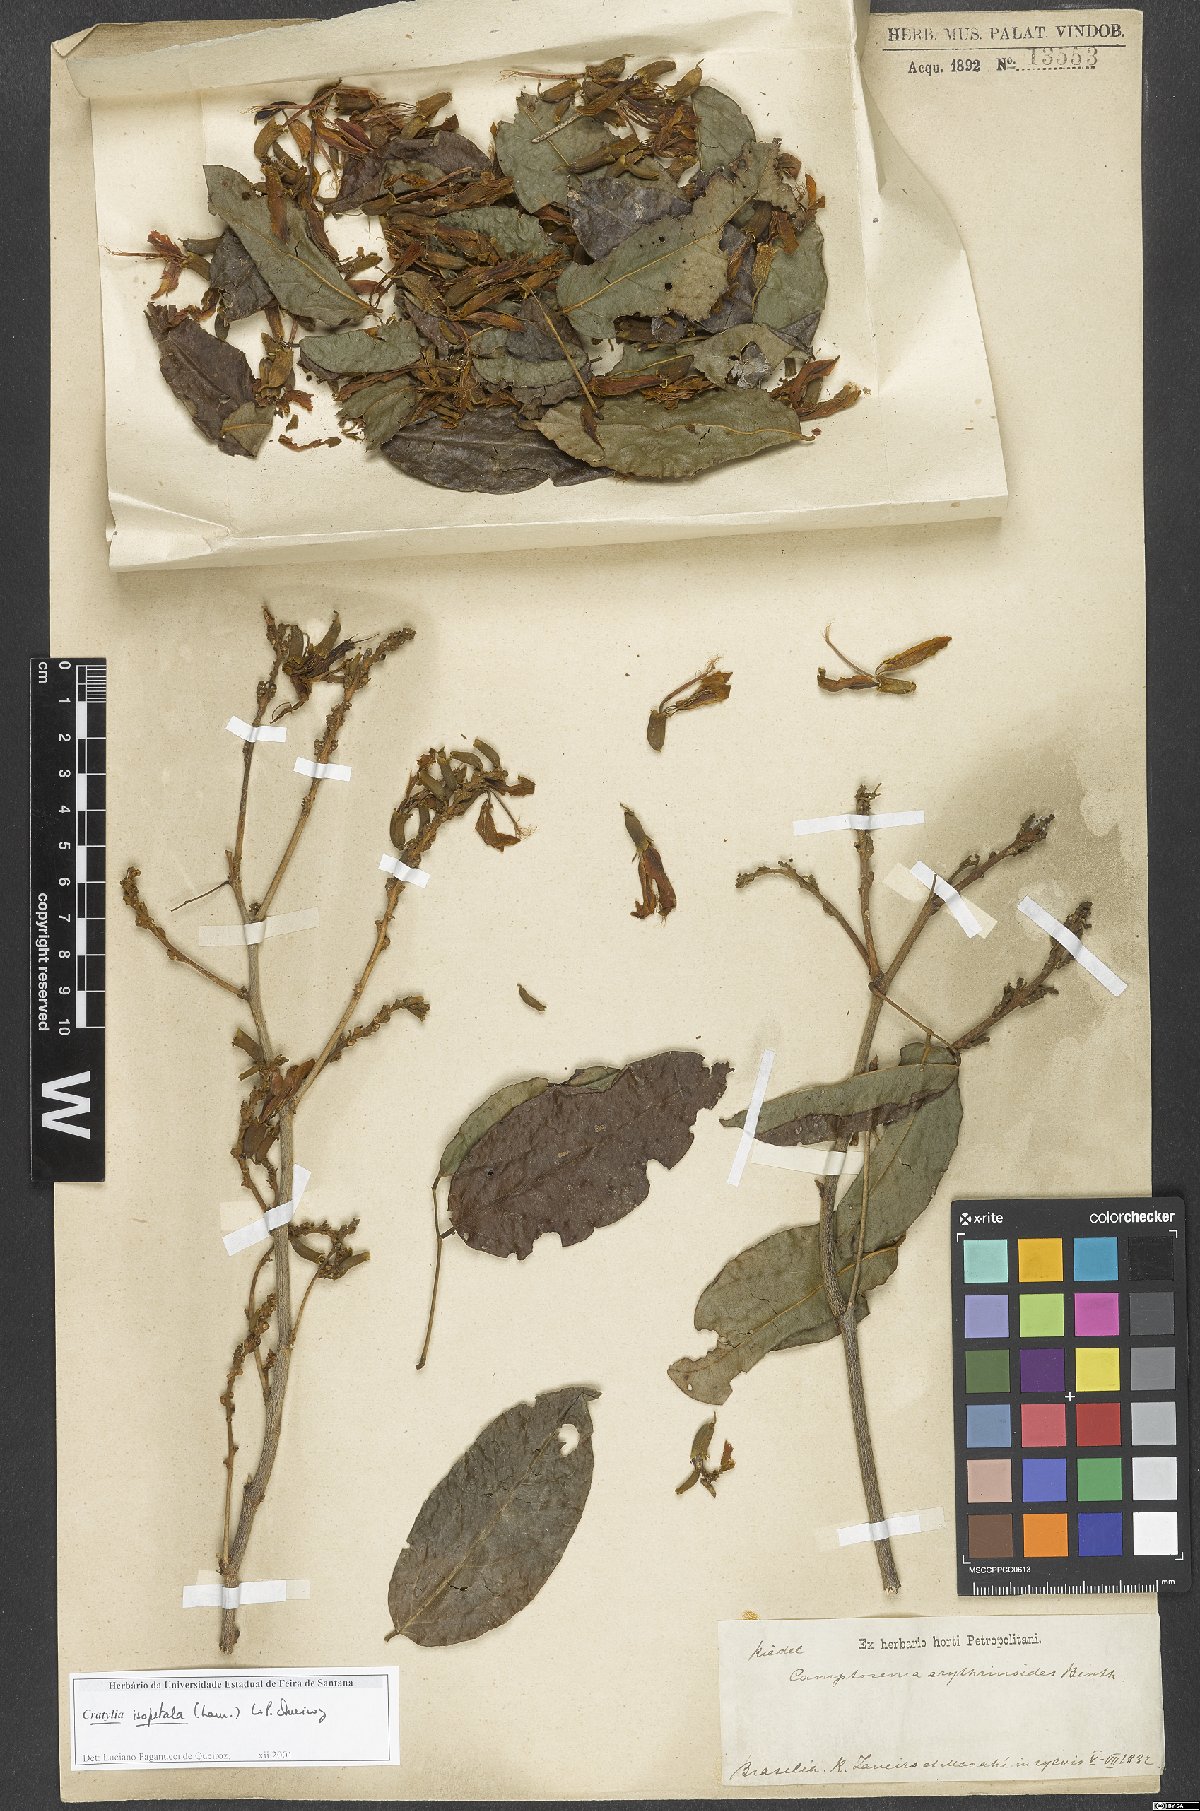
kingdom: Plantae
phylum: Tracheophyta
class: Magnoliopsida
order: Fabales
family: Fabaceae
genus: Cratylia
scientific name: Cratylia isopetala
